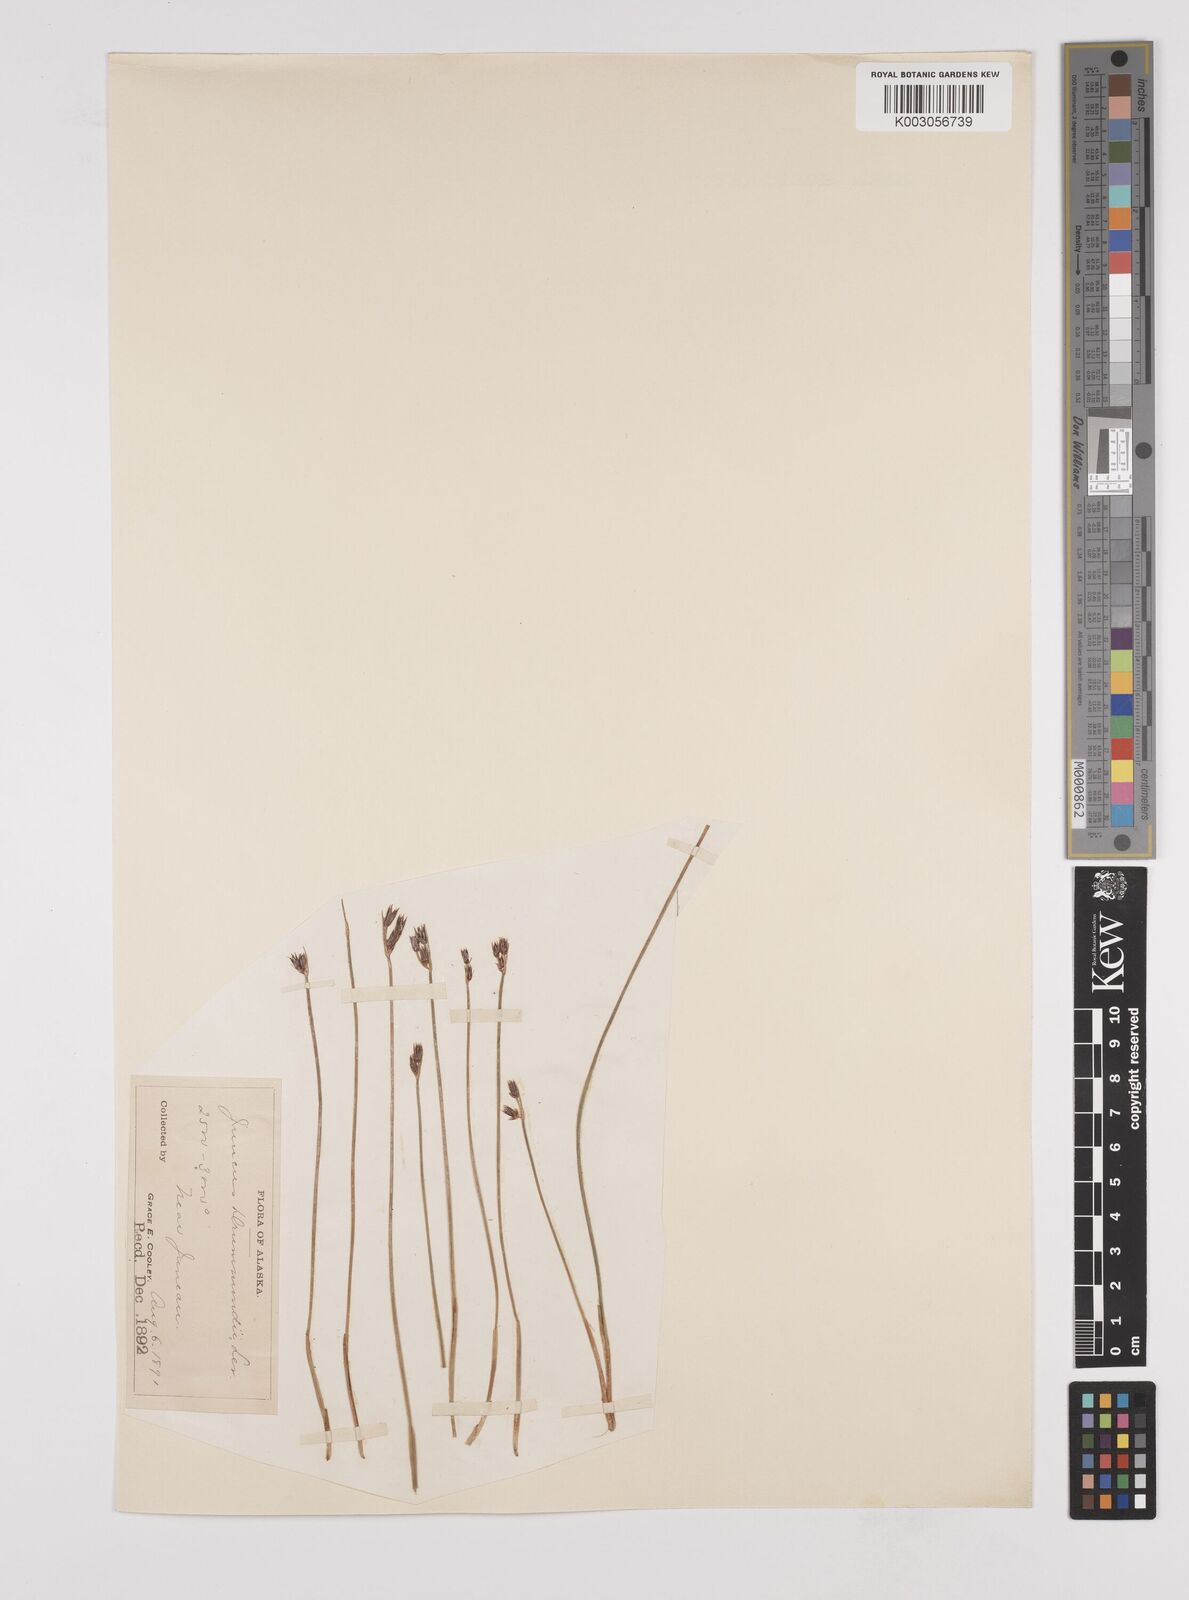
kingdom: Plantae
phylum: Tracheophyta
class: Liliopsida
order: Poales
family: Juncaceae
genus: Juncus
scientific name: Juncus drummondii
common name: Drummond's rush
